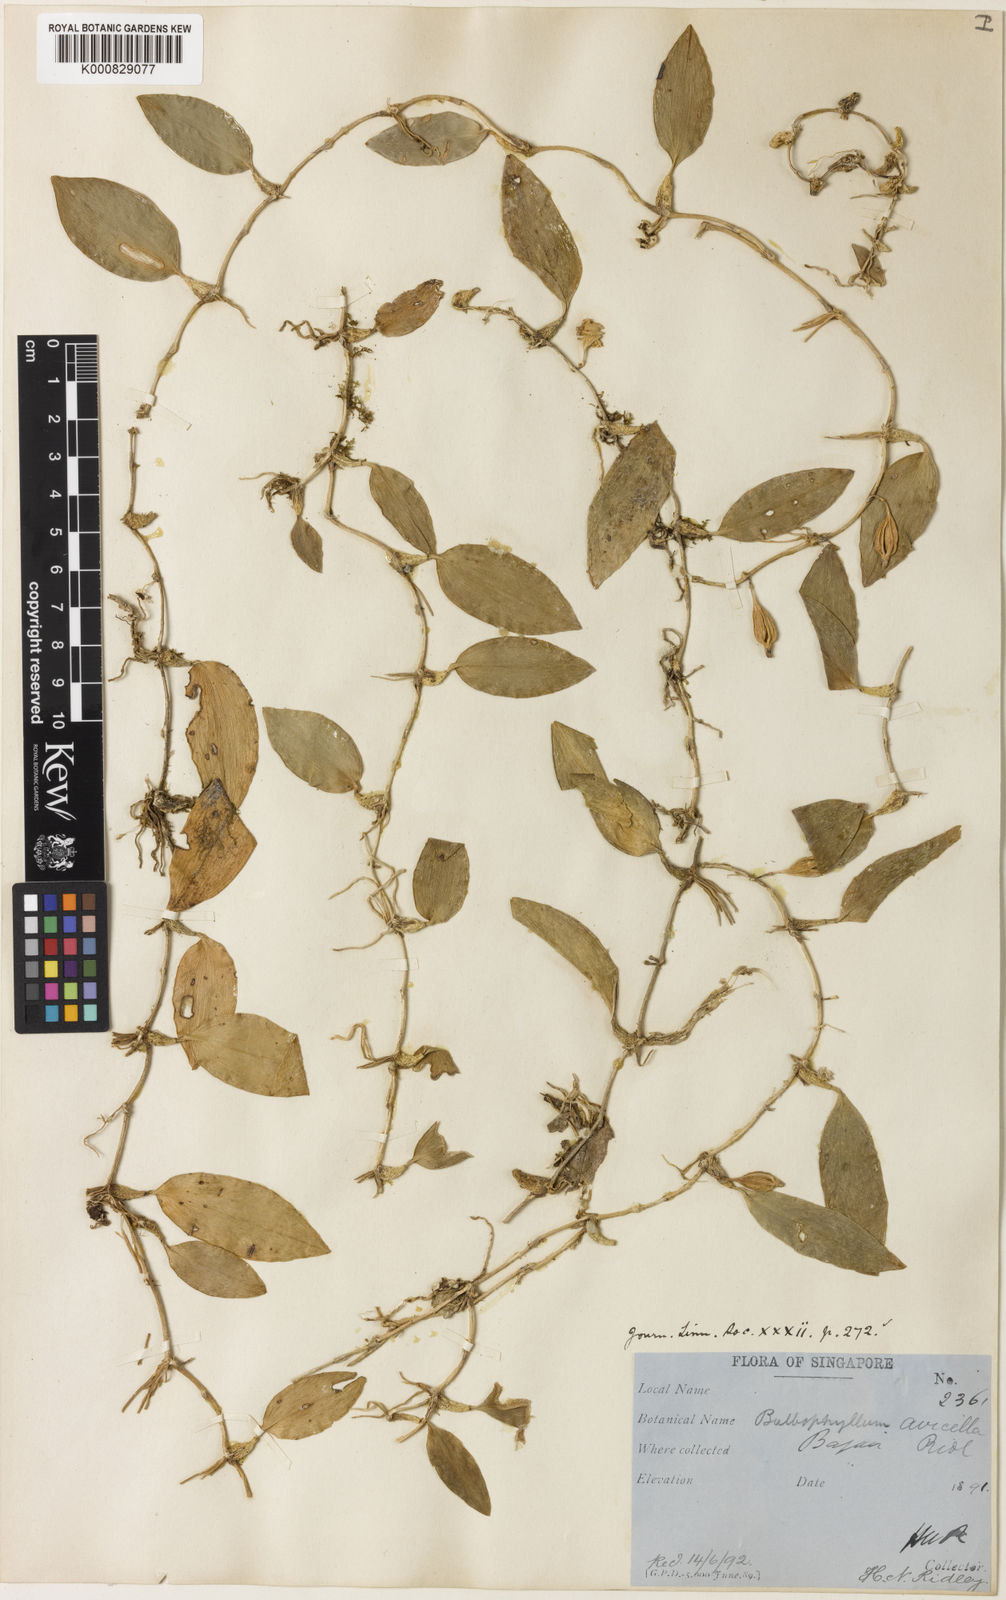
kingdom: Plantae
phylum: Tracheophyta
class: Liliopsida
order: Asparagales
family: Orchidaceae
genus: Bulbophyllum
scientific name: Bulbophyllum membranaceum
